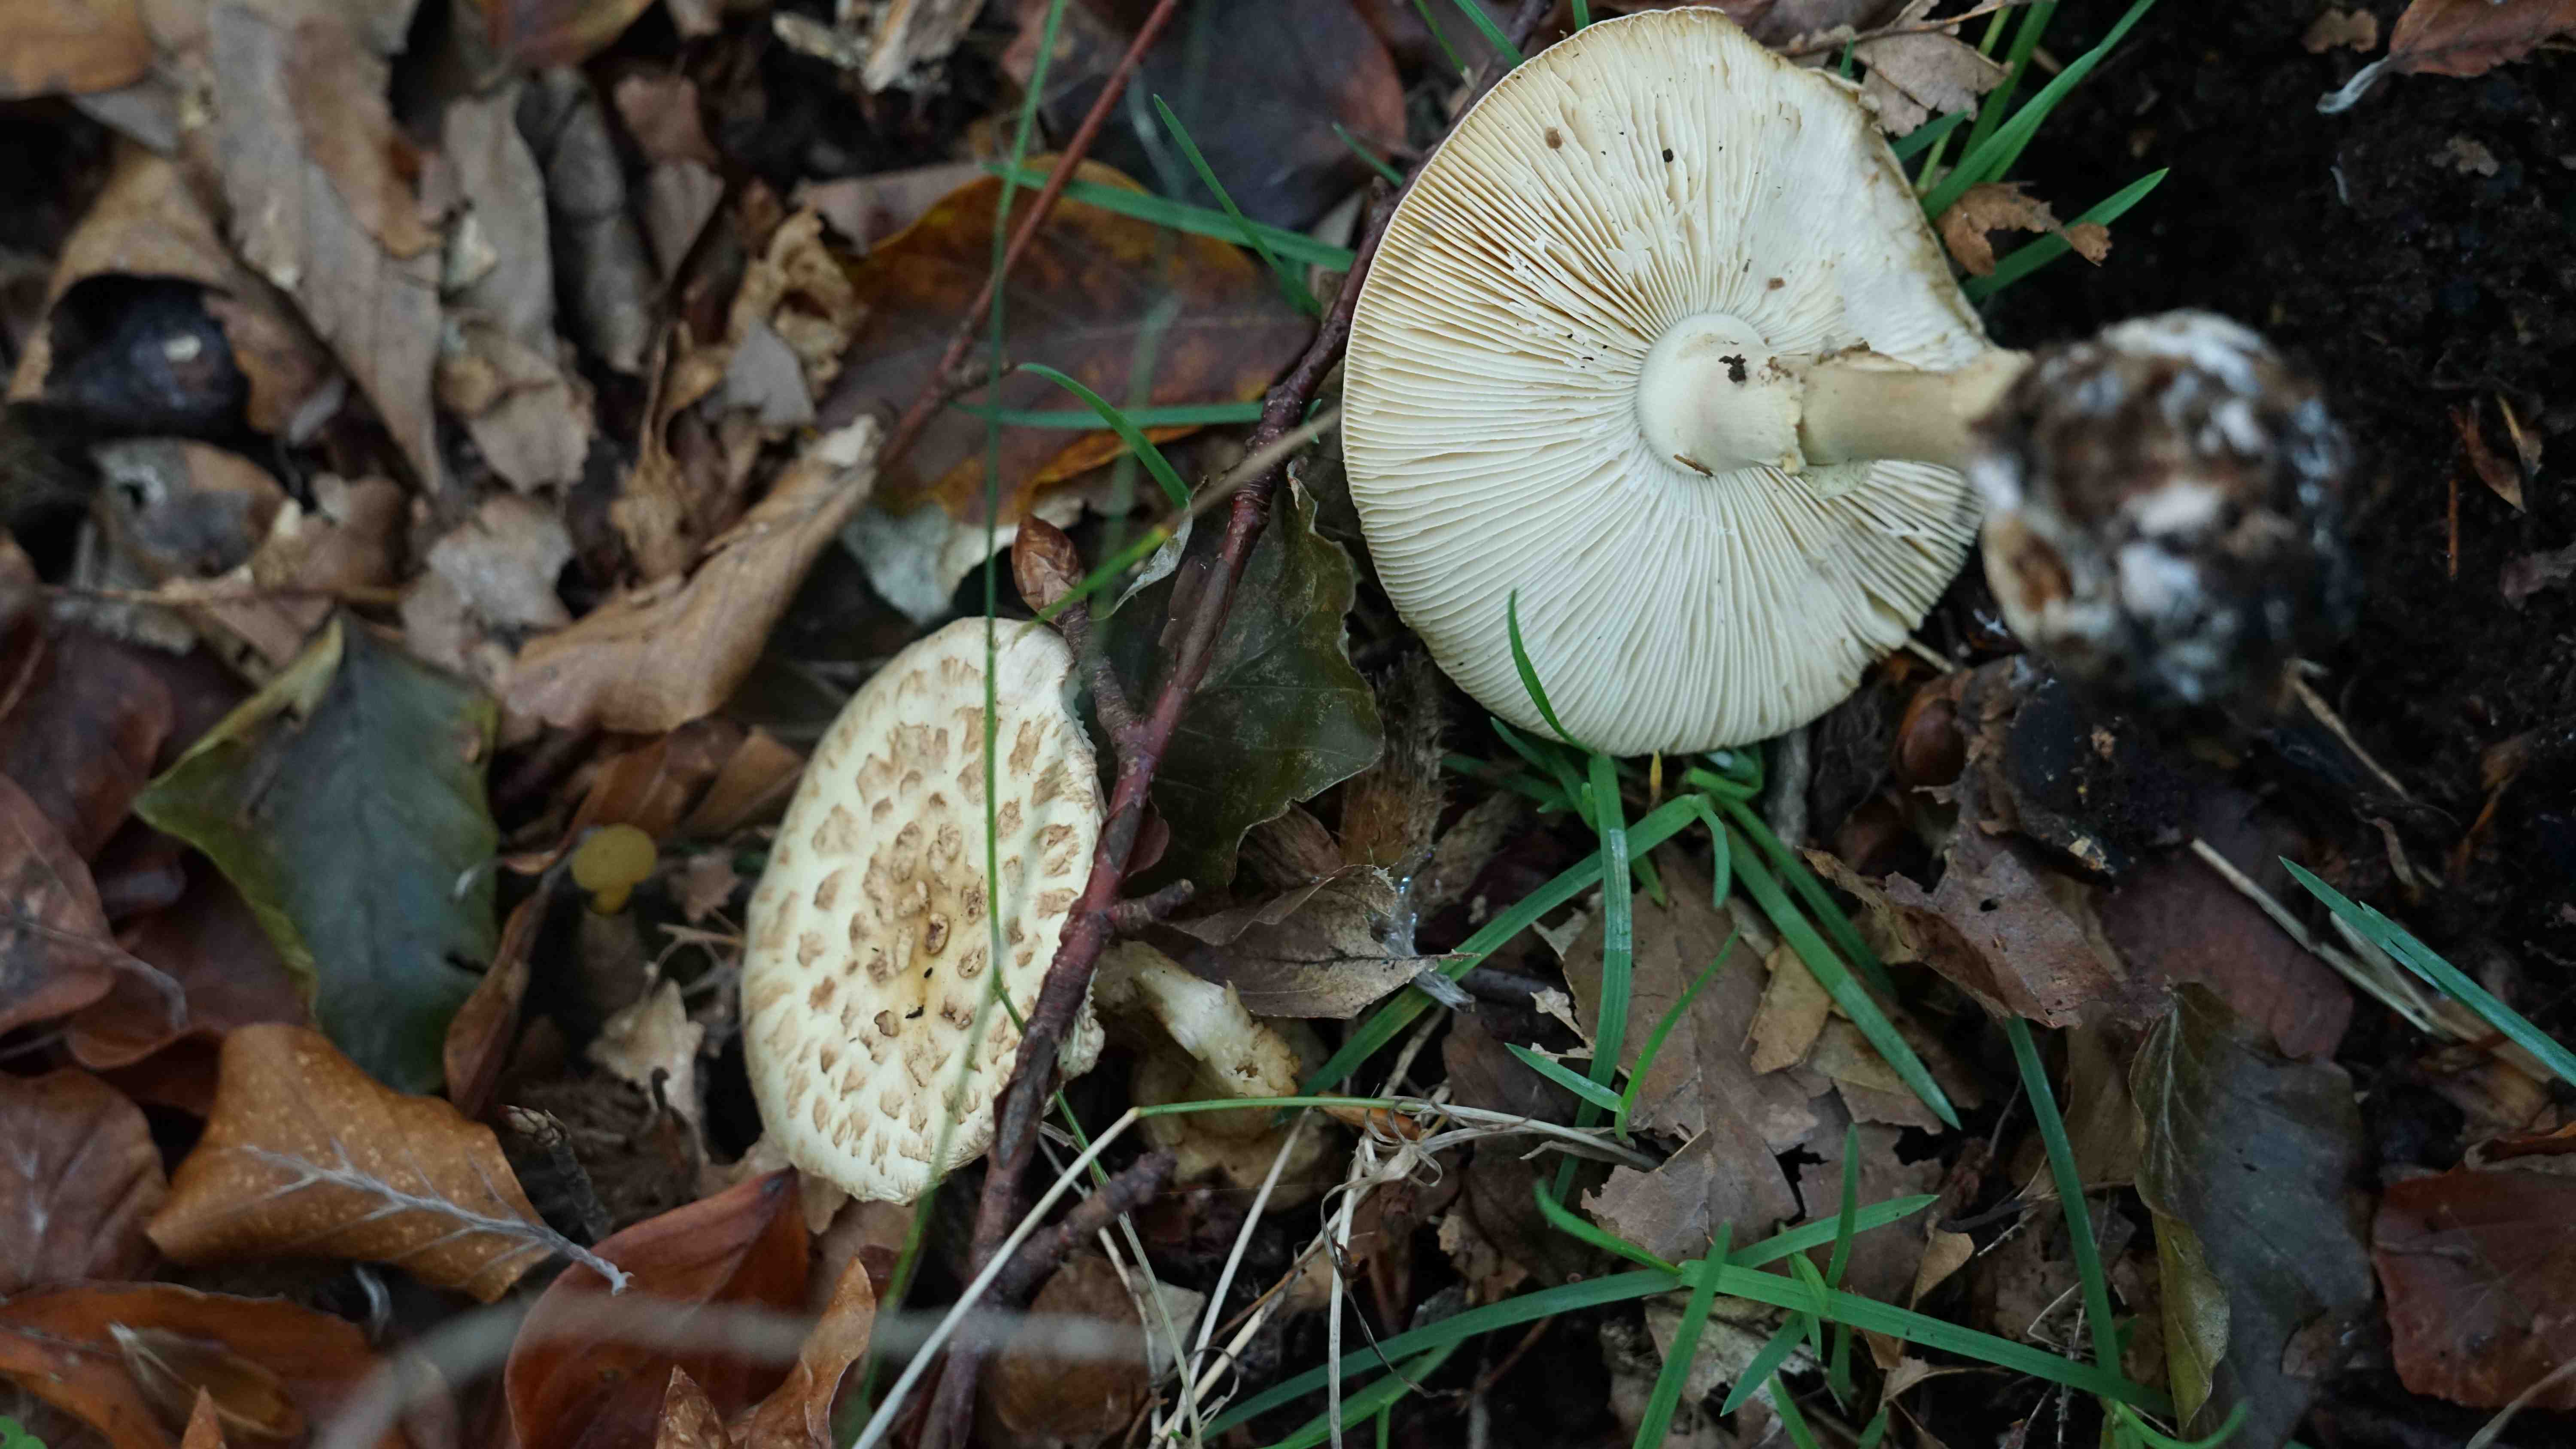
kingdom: Fungi
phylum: Basidiomycota
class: Agaricomycetes
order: Agaricales
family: Amanitaceae
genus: Amanita
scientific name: Amanita citrina
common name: False death-cap
